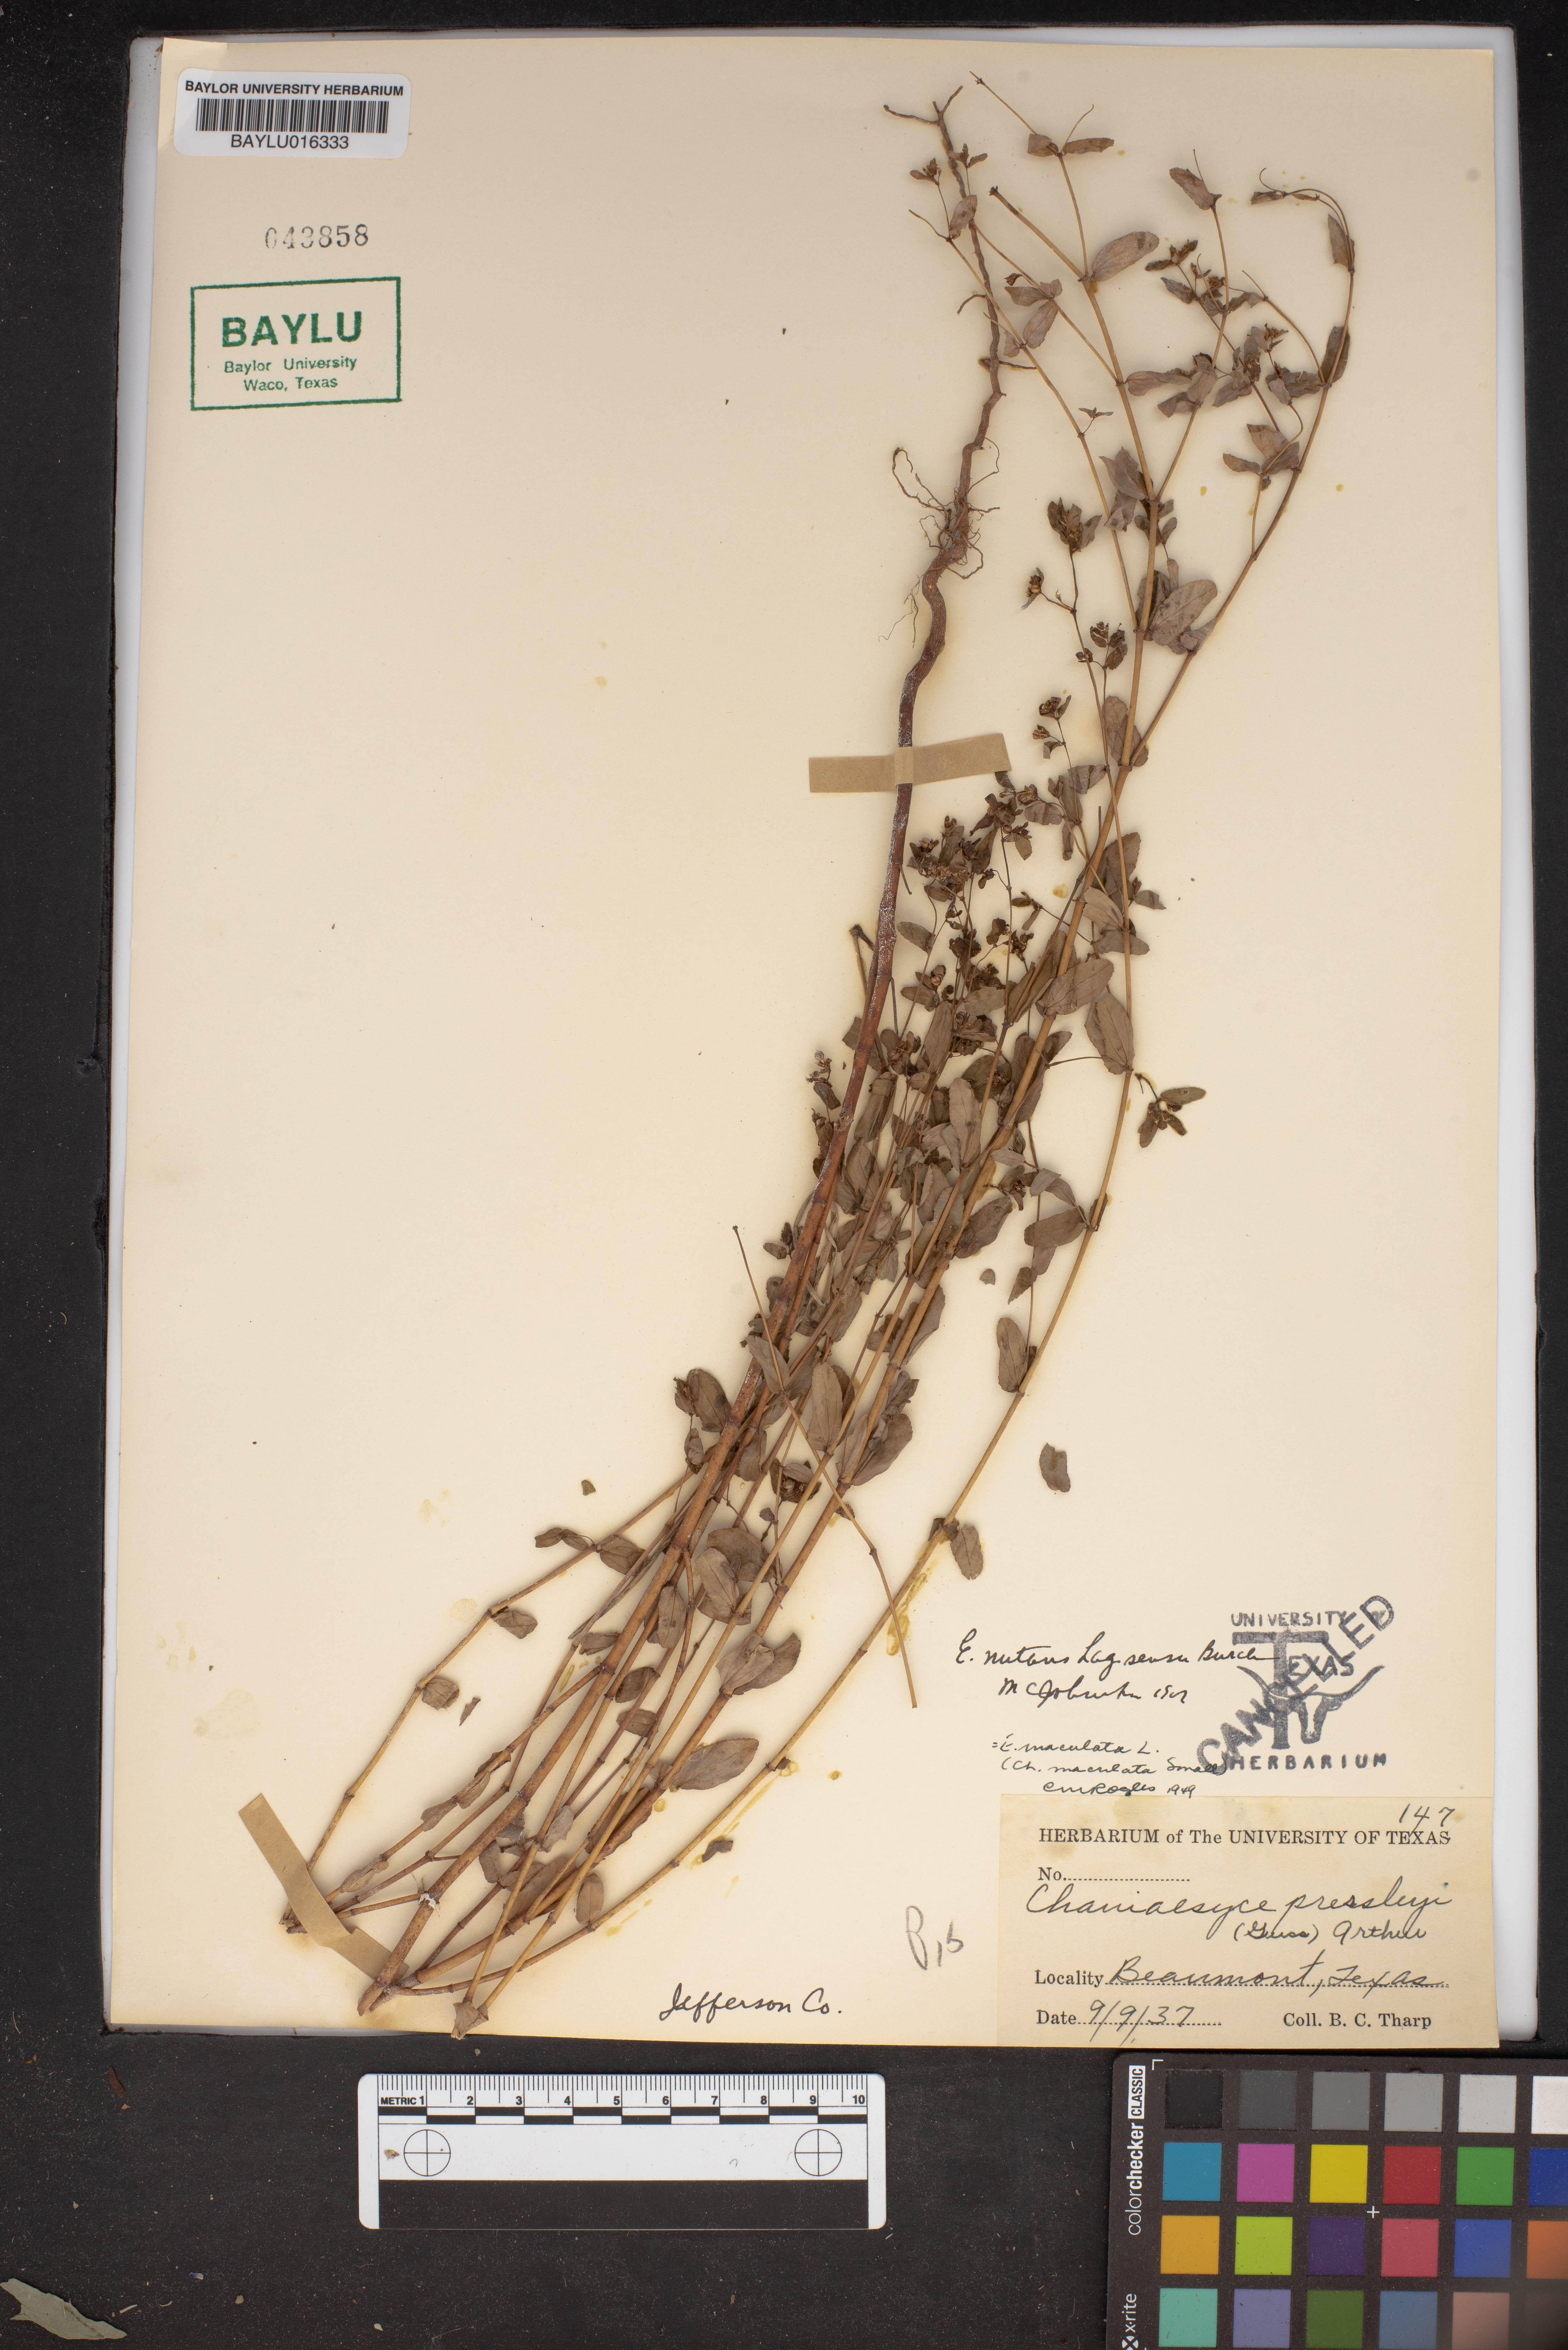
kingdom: Plantae
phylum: Tracheophyta
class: Magnoliopsida
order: Malpighiales
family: Euphorbiaceae
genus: Euphorbia
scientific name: Euphorbia nutans
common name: Eyebane
